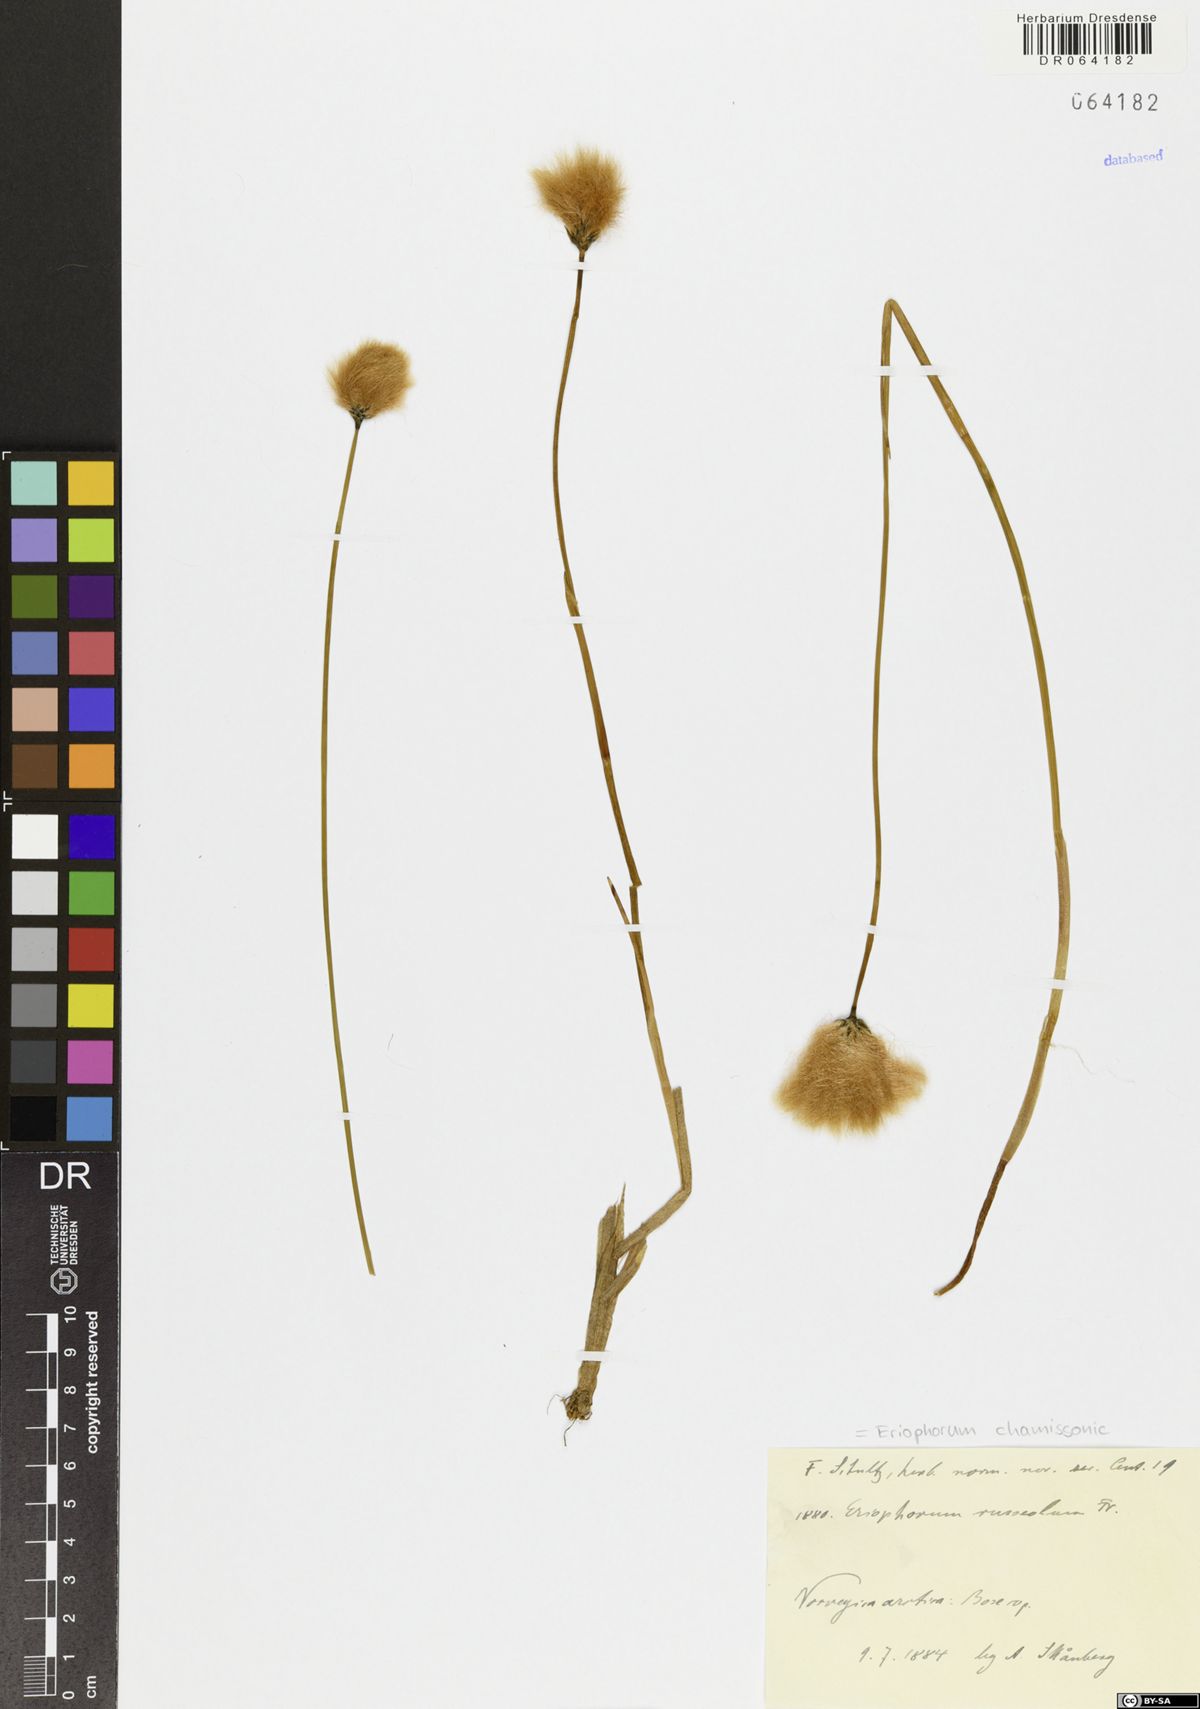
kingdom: Plantae
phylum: Tracheophyta
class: Liliopsida
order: Poales
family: Cyperaceae
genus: Eriophorum
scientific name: Eriophorum chamissonis
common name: Chamisso's cottongrass
